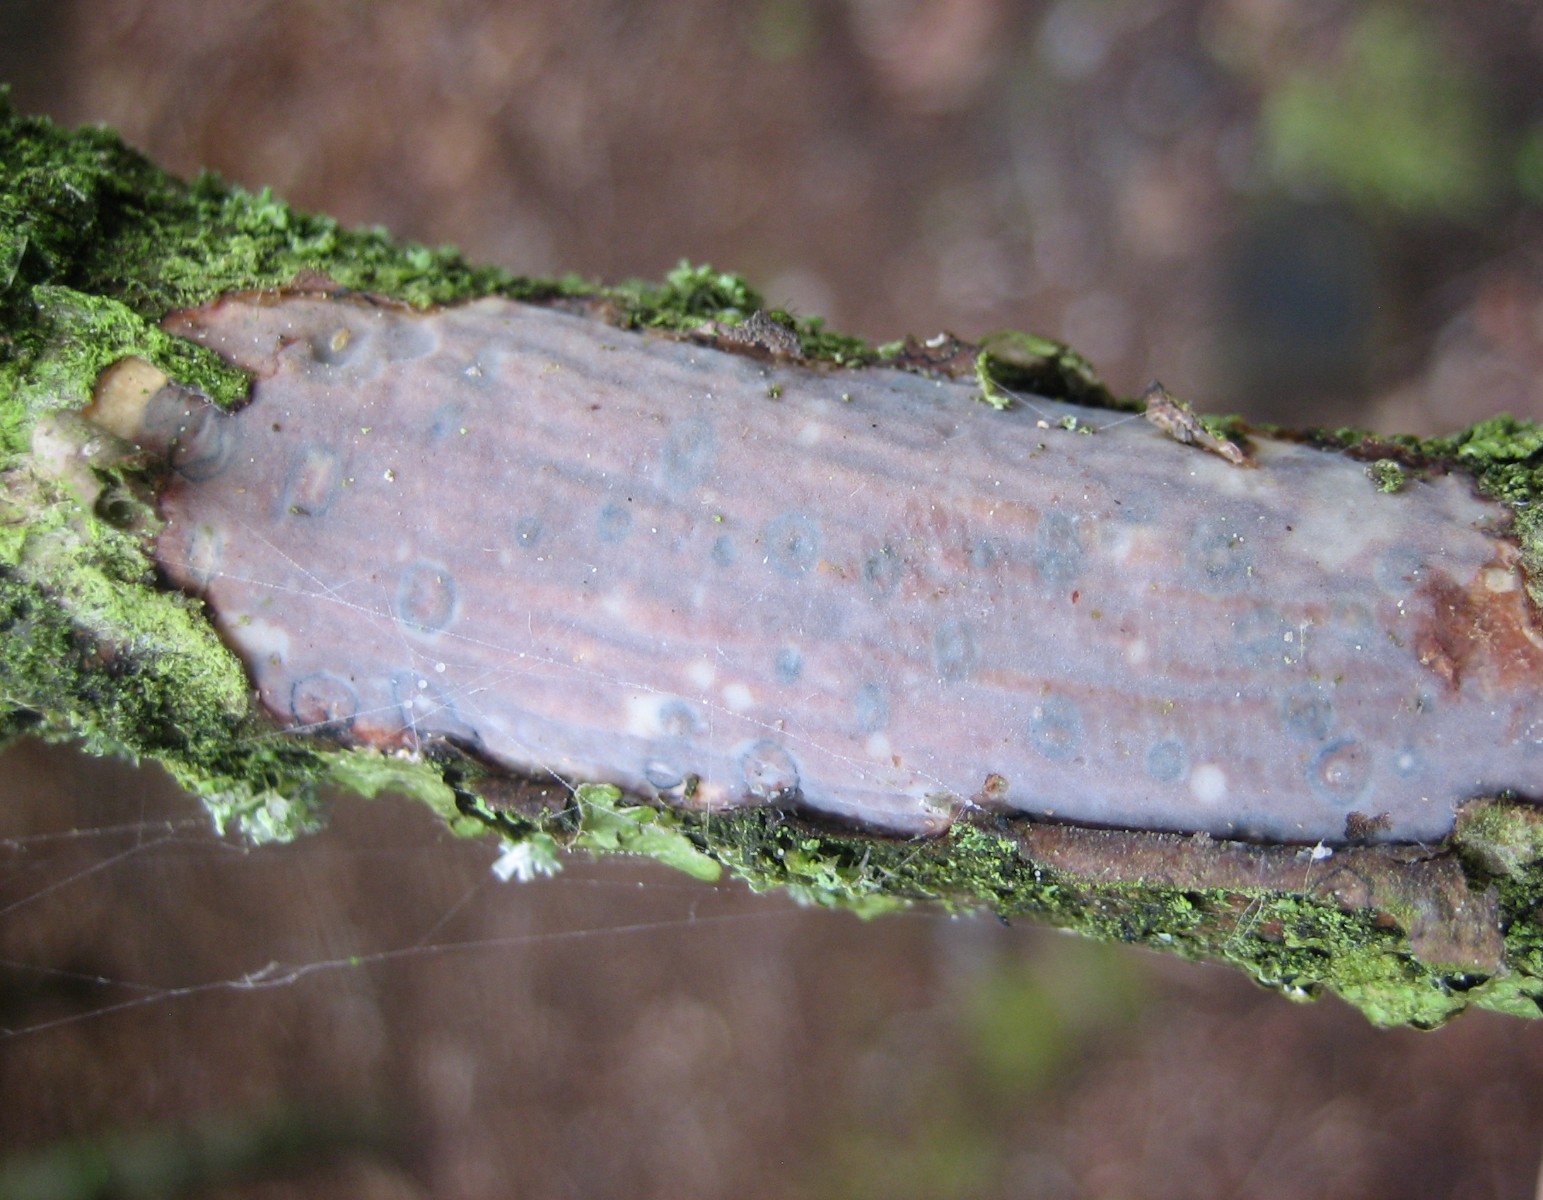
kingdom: Fungi
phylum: Basidiomycota
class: Agaricomycetes
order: Corticiales
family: Vuilleminiaceae
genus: Vuilleminia
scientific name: Vuilleminia comedens
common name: almindelig barksprænger
